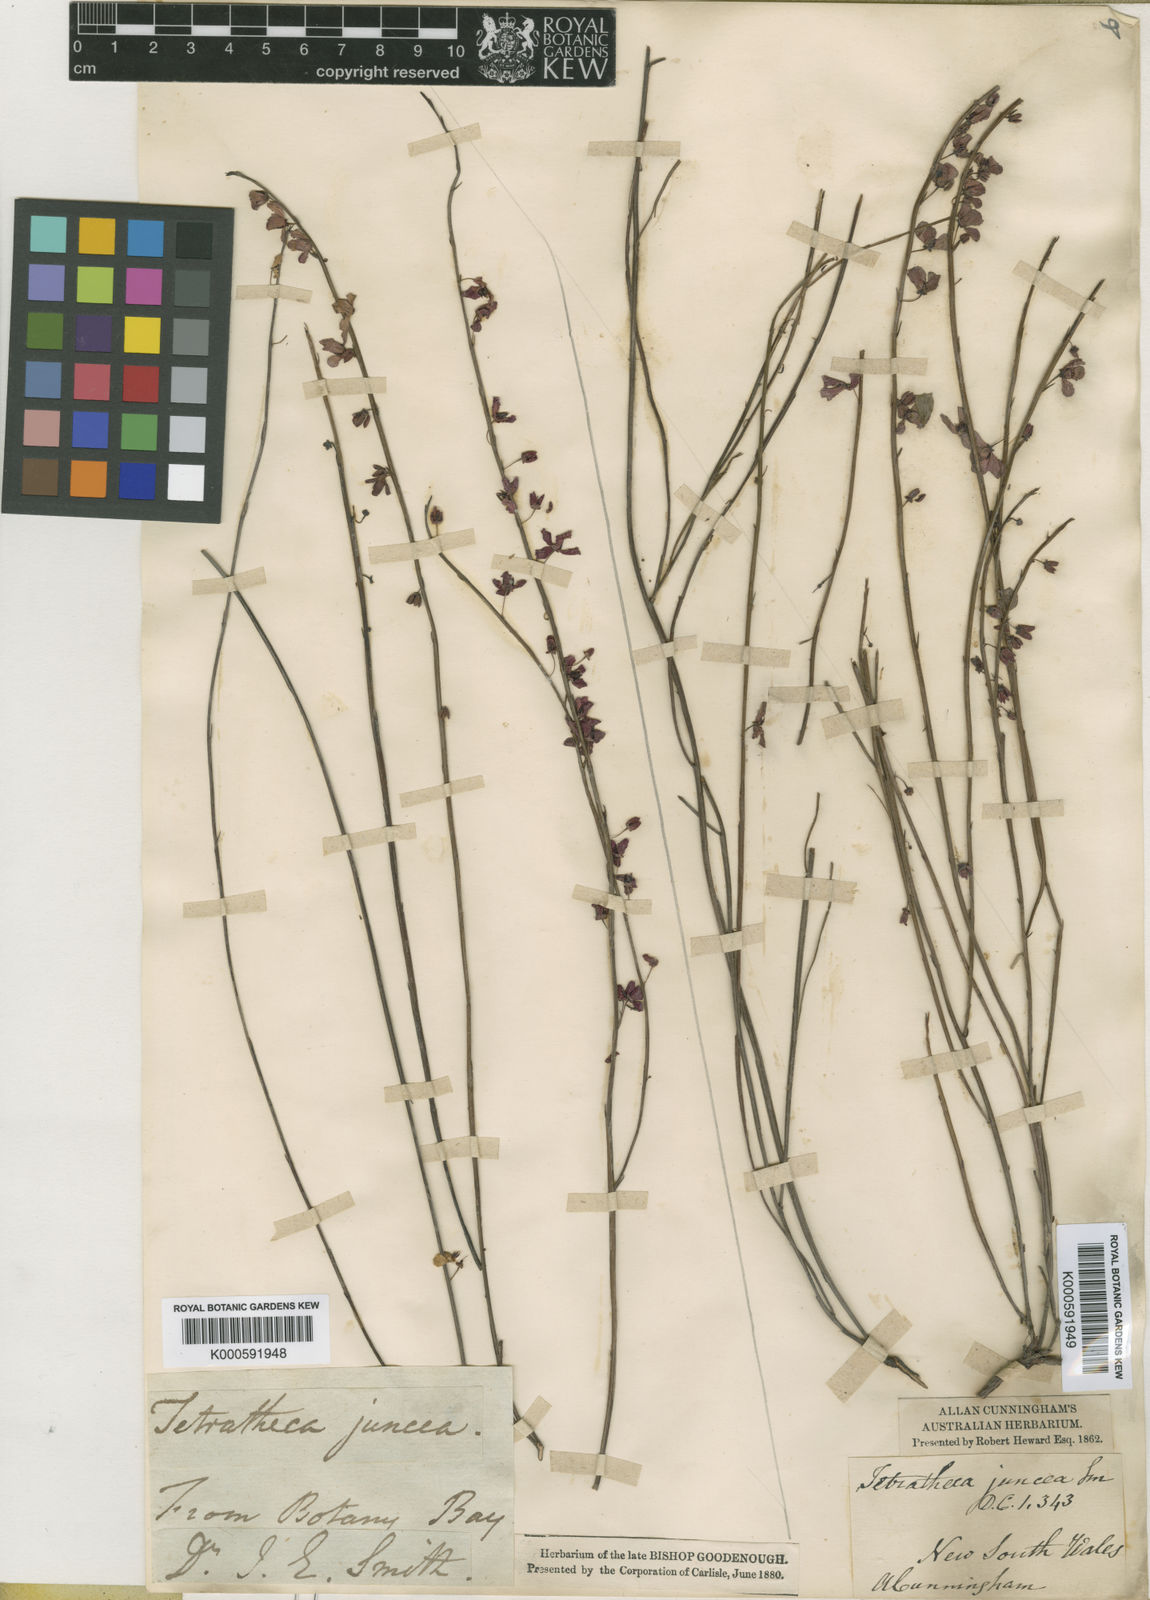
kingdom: Plantae
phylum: Tracheophyta
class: Magnoliopsida
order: Oxalidales
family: Elaeocarpaceae
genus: Tetratheca
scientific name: Tetratheca juncea
